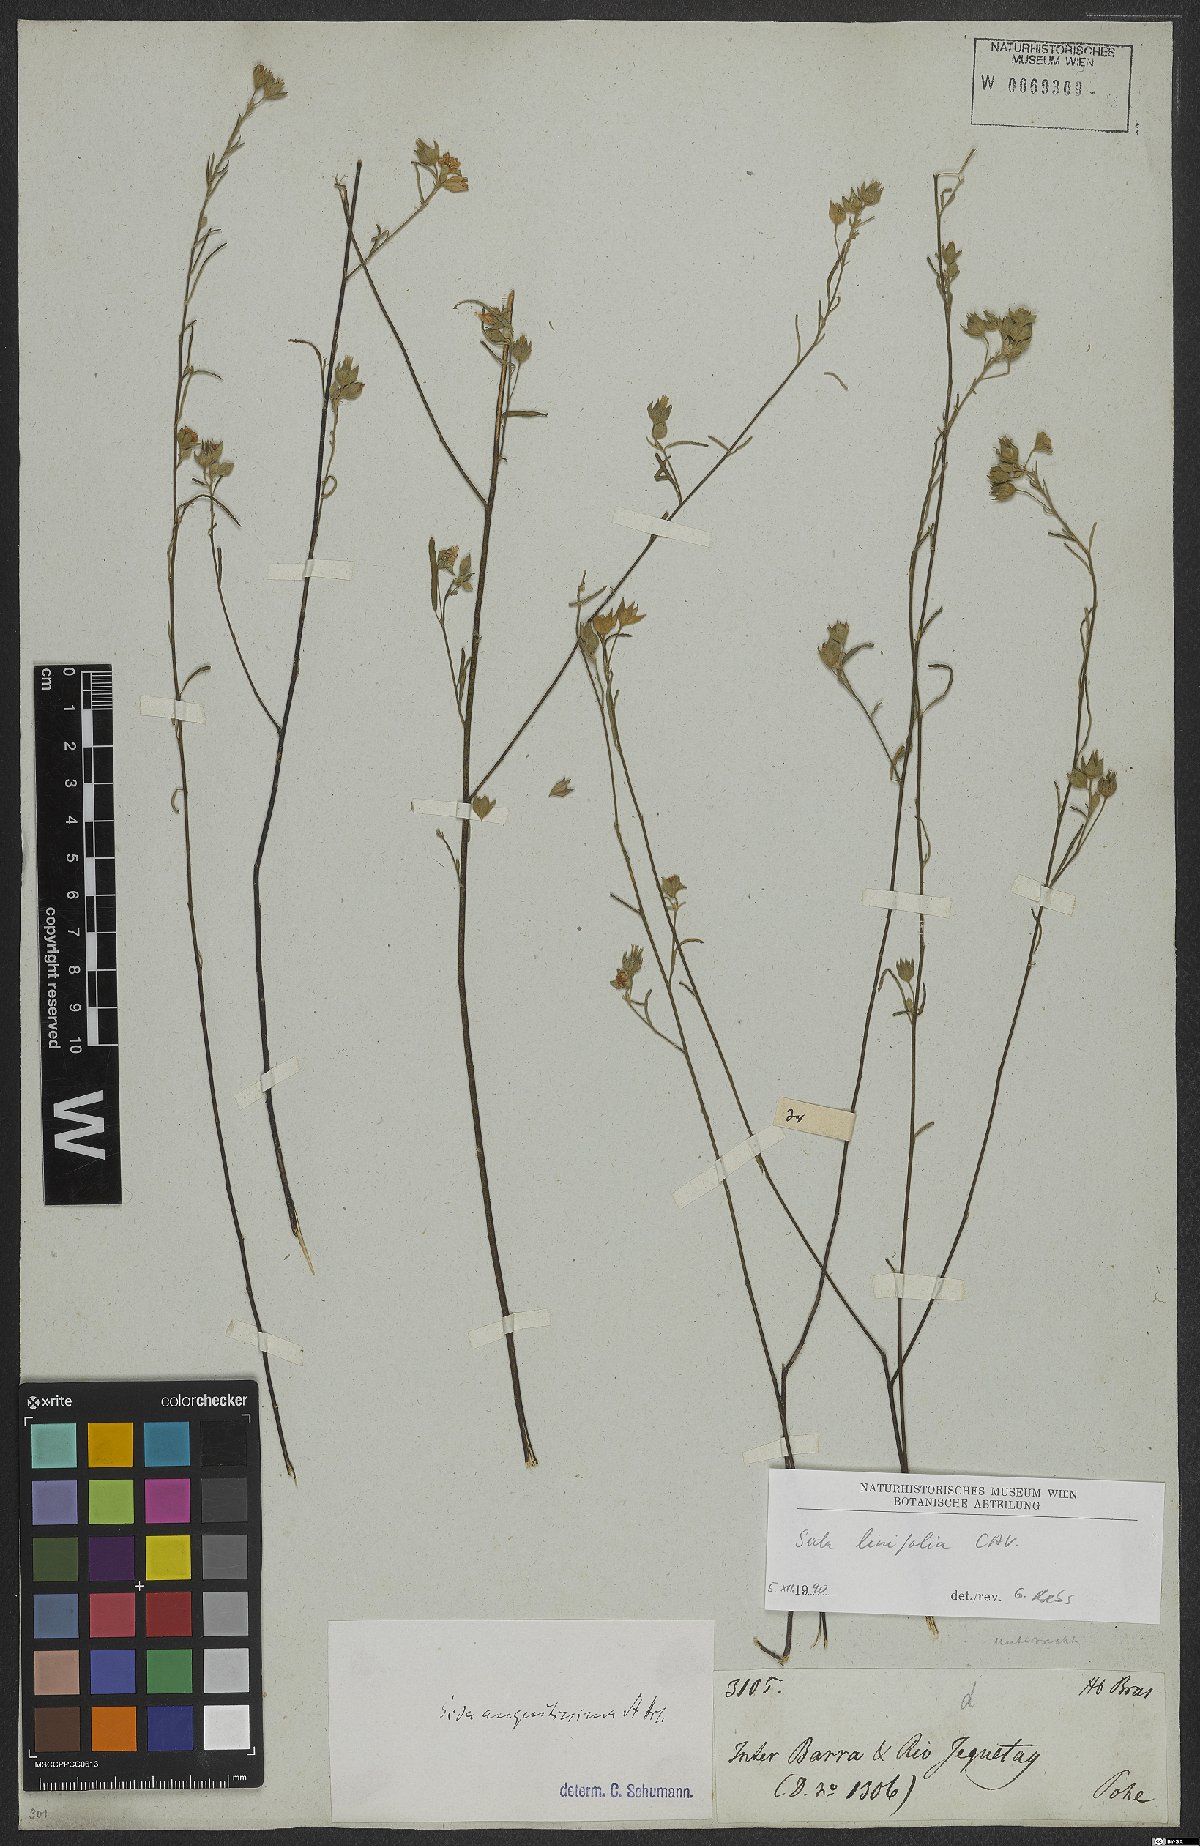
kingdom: Plantae
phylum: Tracheophyta
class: Magnoliopsida
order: Malvales
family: Malvaceae
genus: Sida
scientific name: Sida linifolia
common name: Flaxleaf fanpetals
